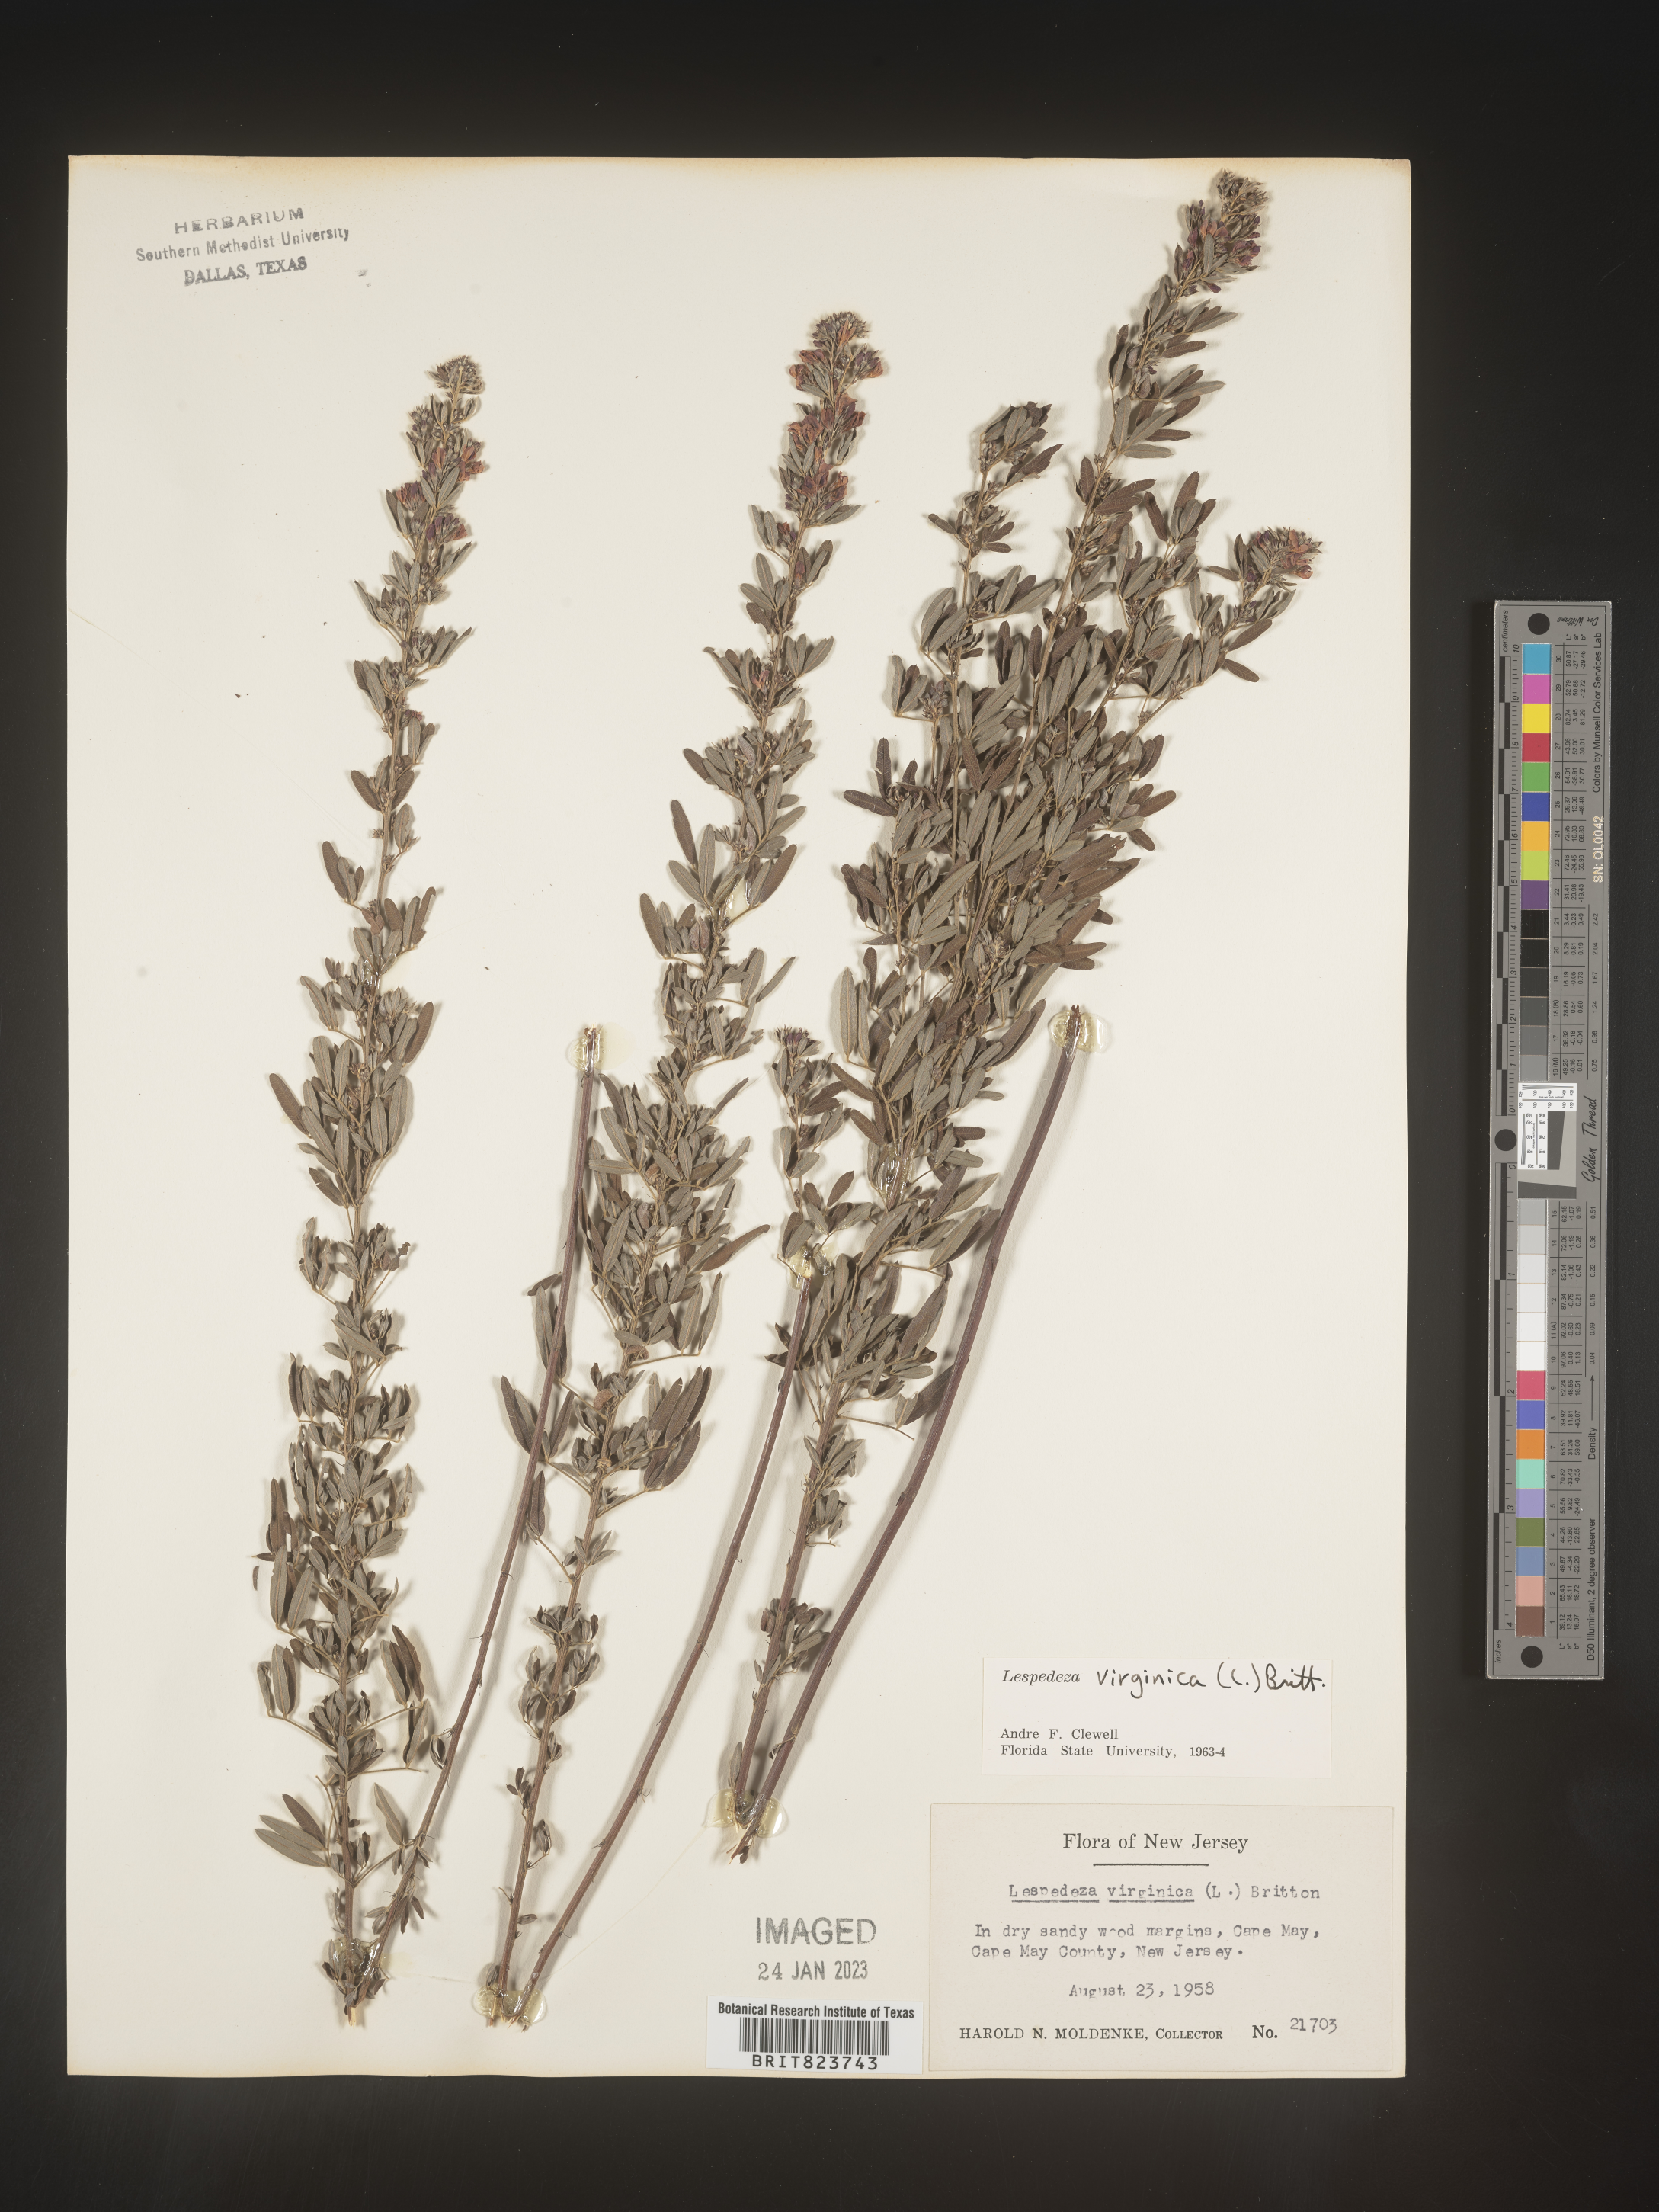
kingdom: Plantae
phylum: Tracheophyta
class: Magnoliopsida
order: Fabales
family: Fabaceae
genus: Lespedeza
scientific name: Lespedeza virginica
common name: Slender bush-clover
